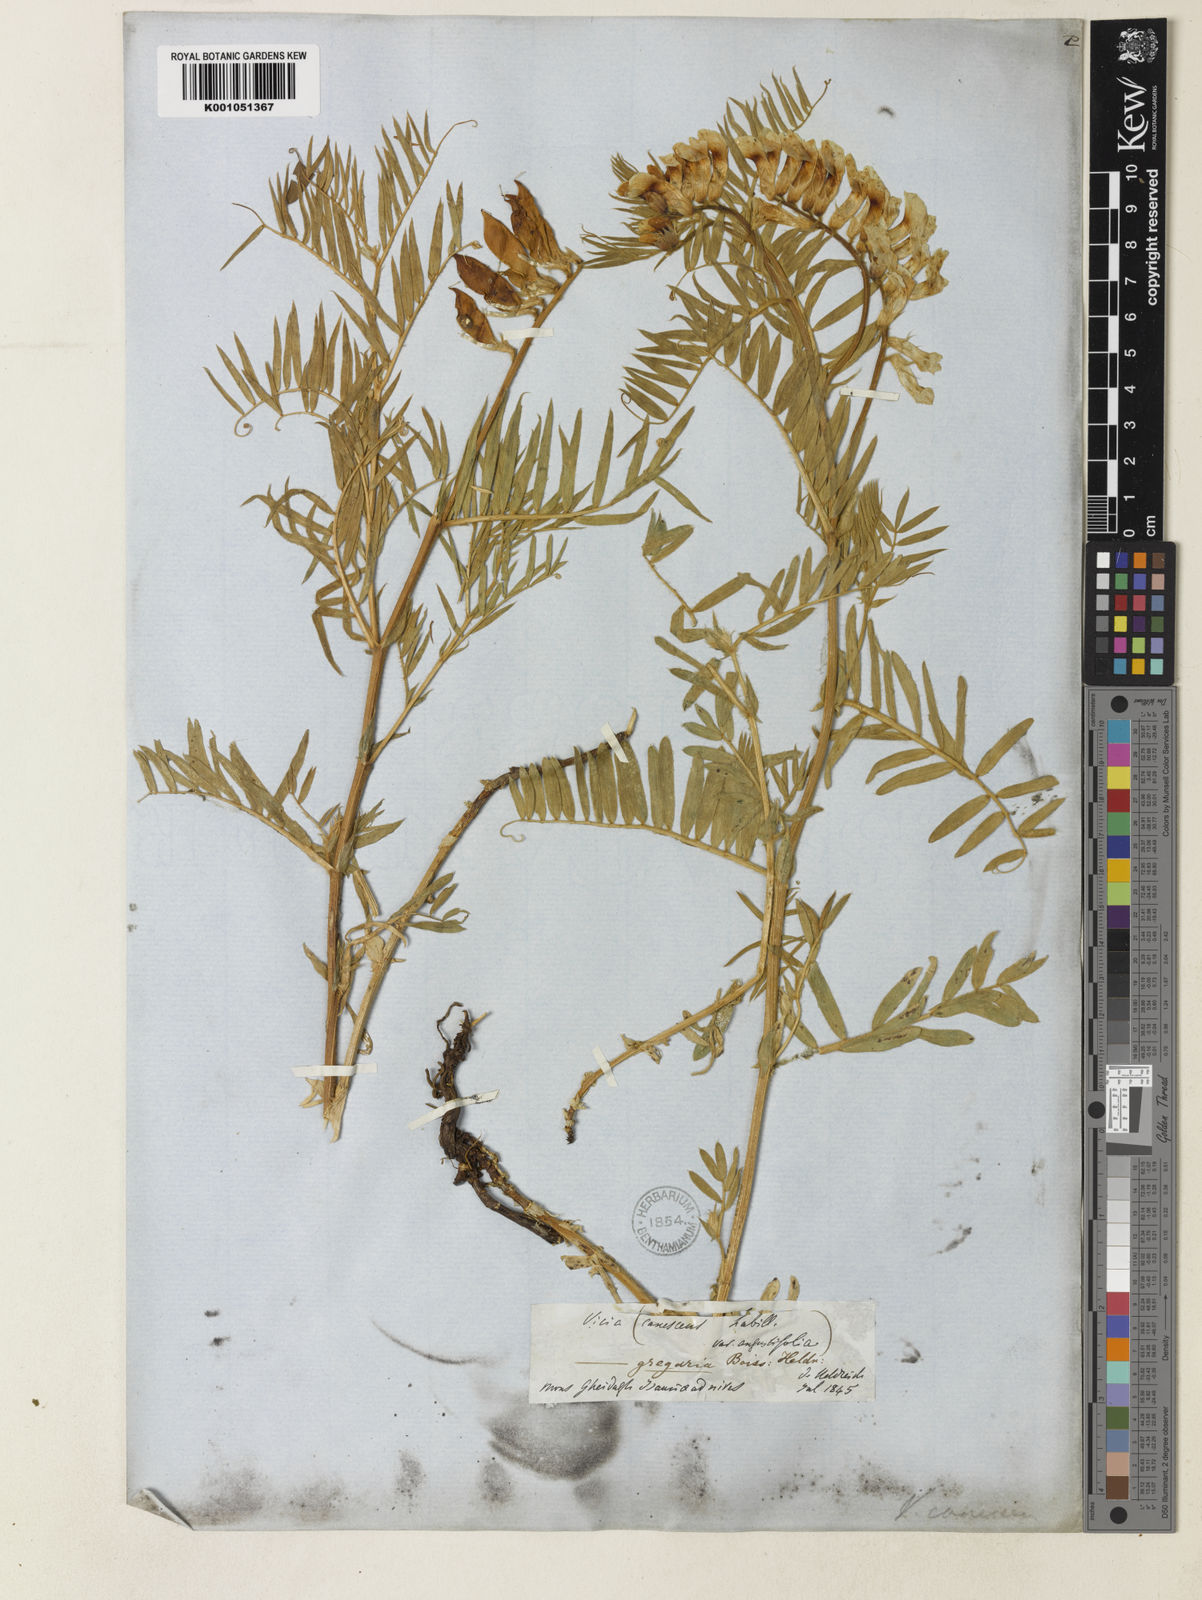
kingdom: Plantae
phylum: Tracheophyta
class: Magnoliopsida
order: Fabales
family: Fabaceae
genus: Vicia
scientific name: Vicia dumetorum
